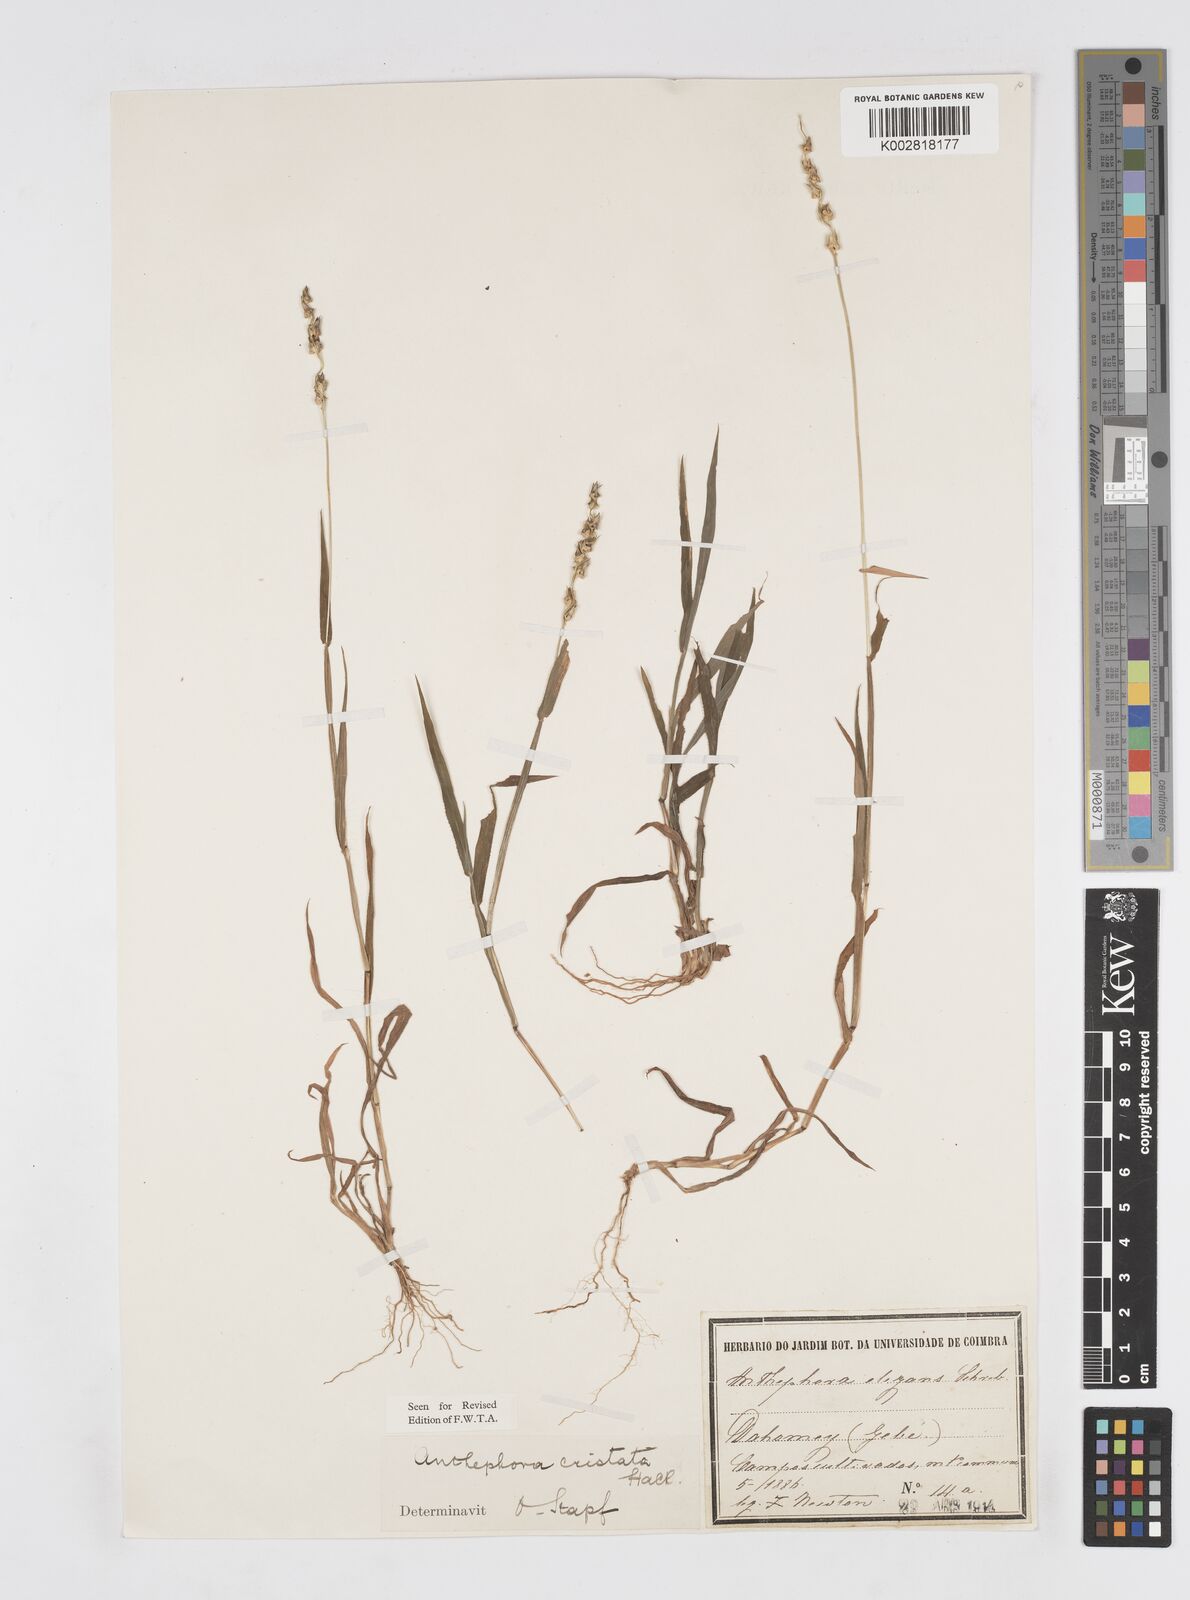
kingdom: Plantae
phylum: Tracheophyta
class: Liliopsida
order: Poales
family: Poaceae
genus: Anthephora
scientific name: Anthephora cristata
